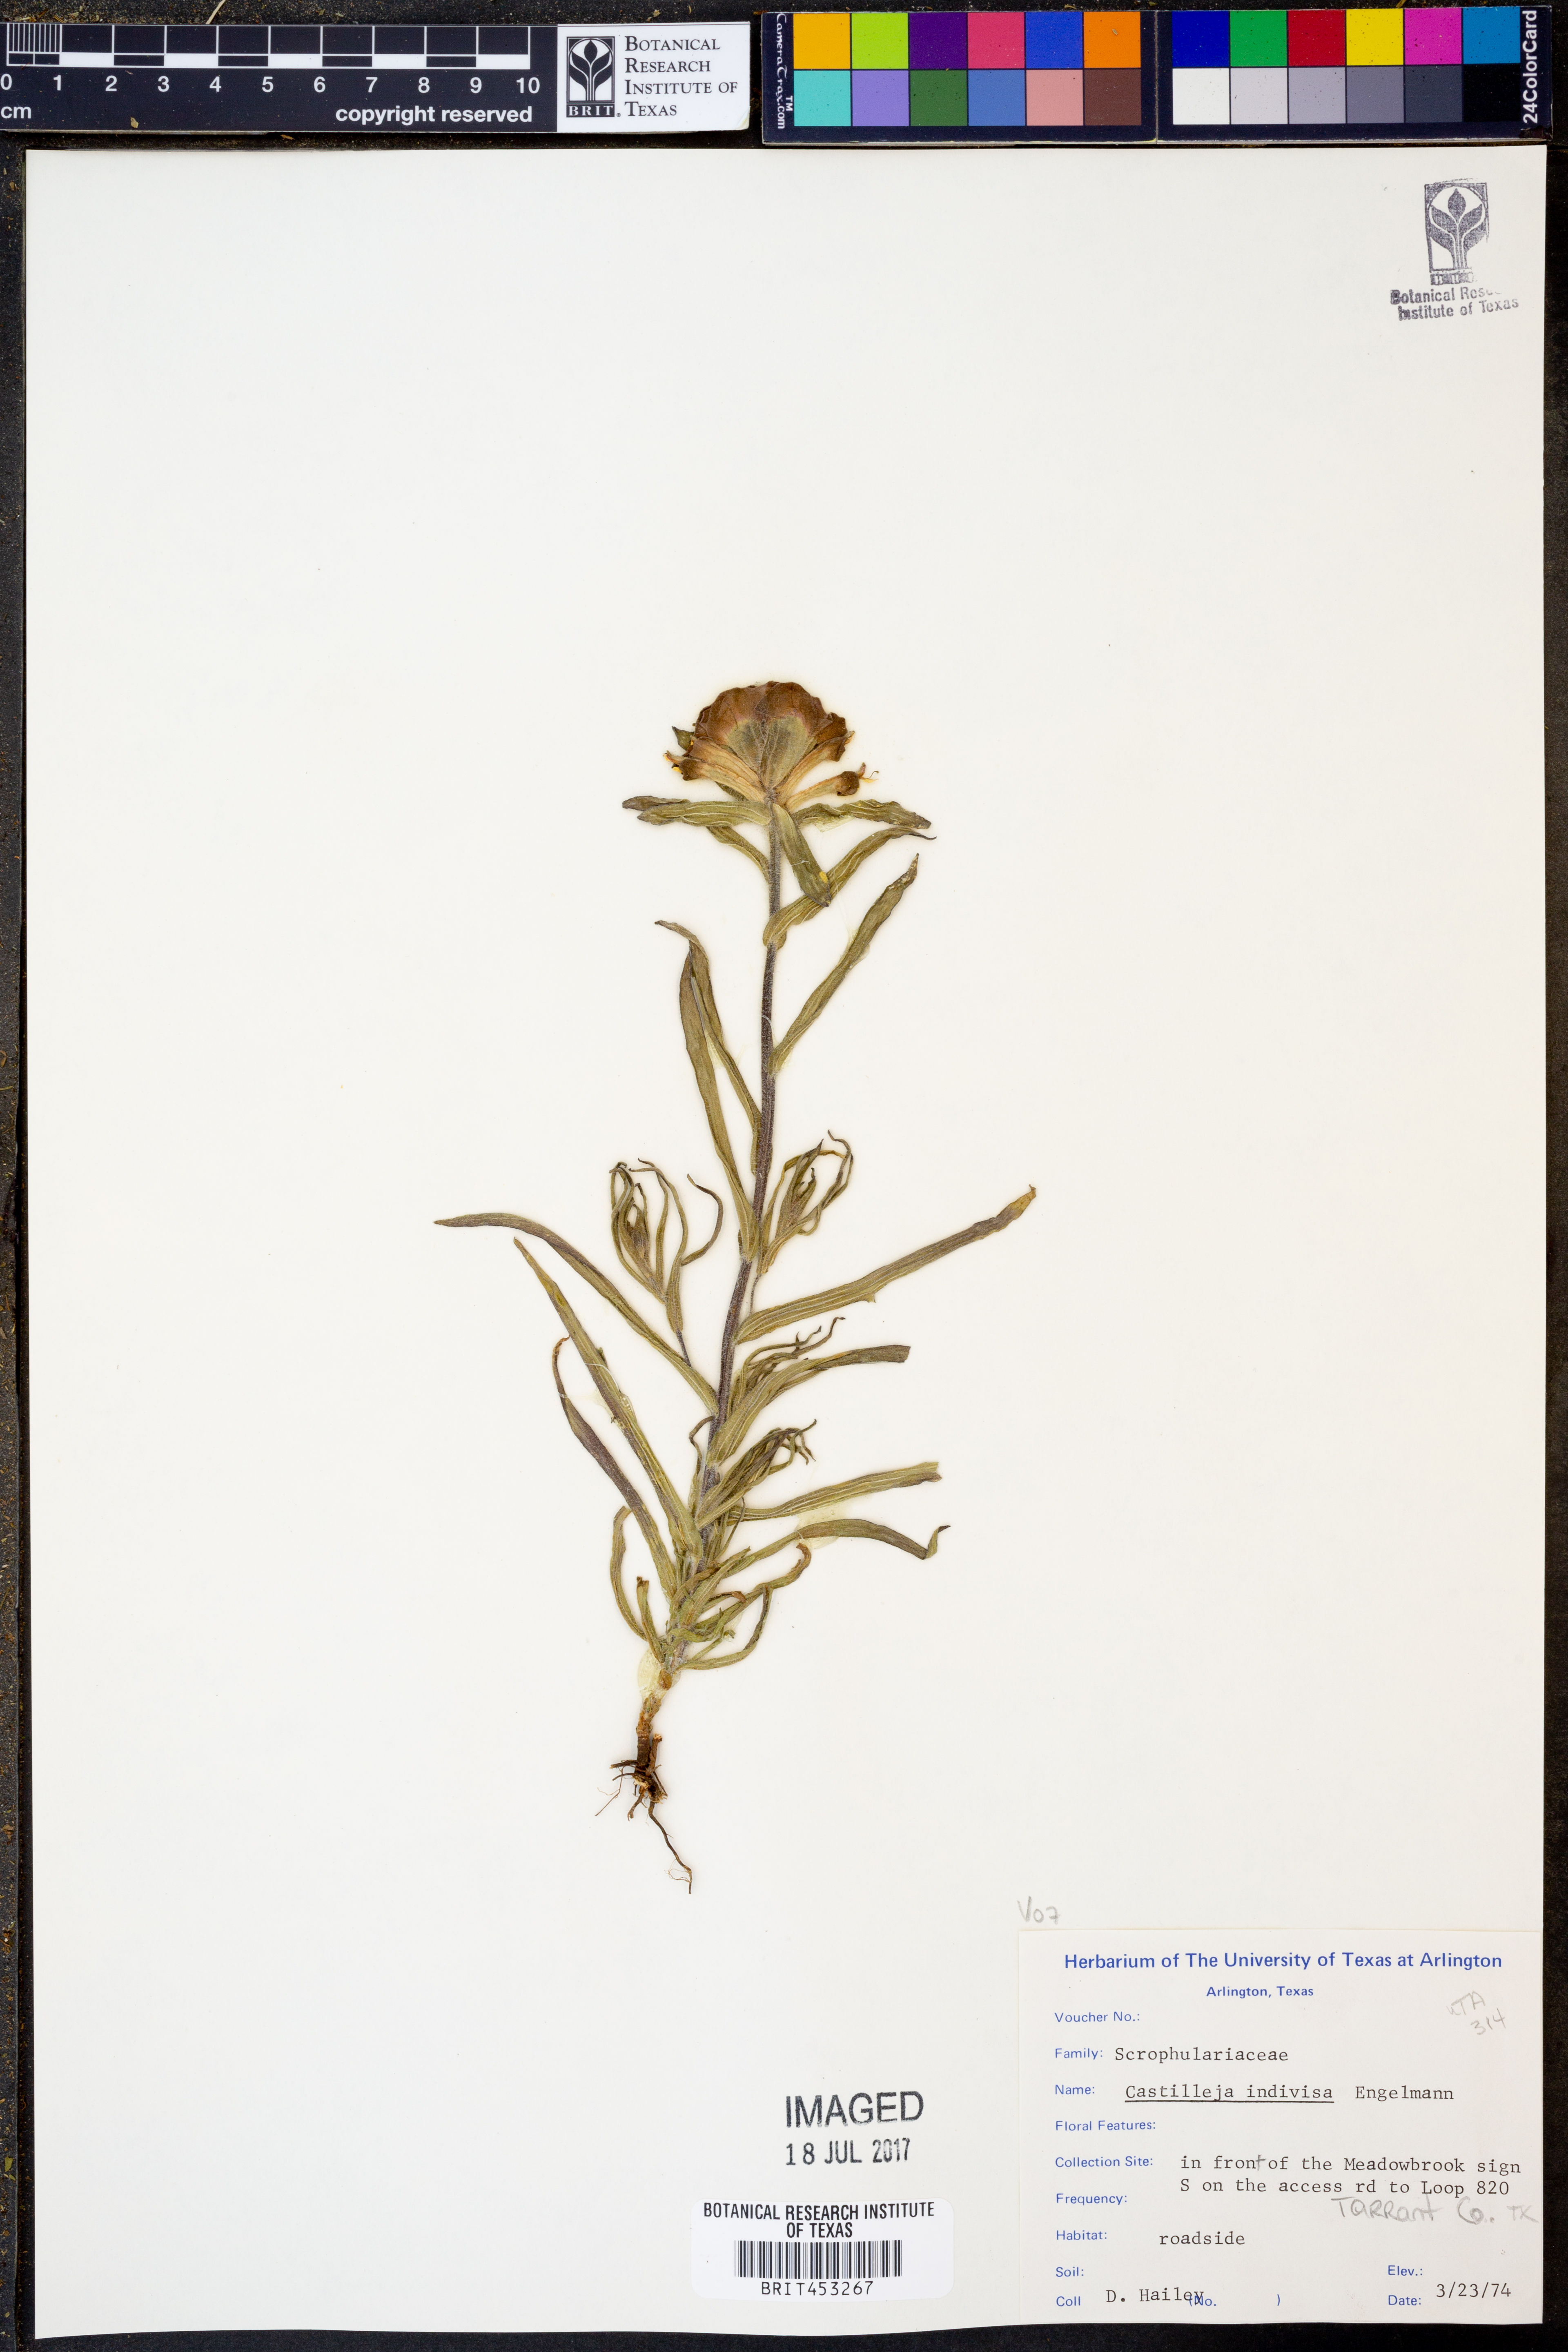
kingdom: Plantae
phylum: Tracheophyta
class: Magnoliopsida
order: Lamiales
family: Orobanchaceae
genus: Castilleja
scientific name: Castilleja indivisa
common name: Texas paintbrush
